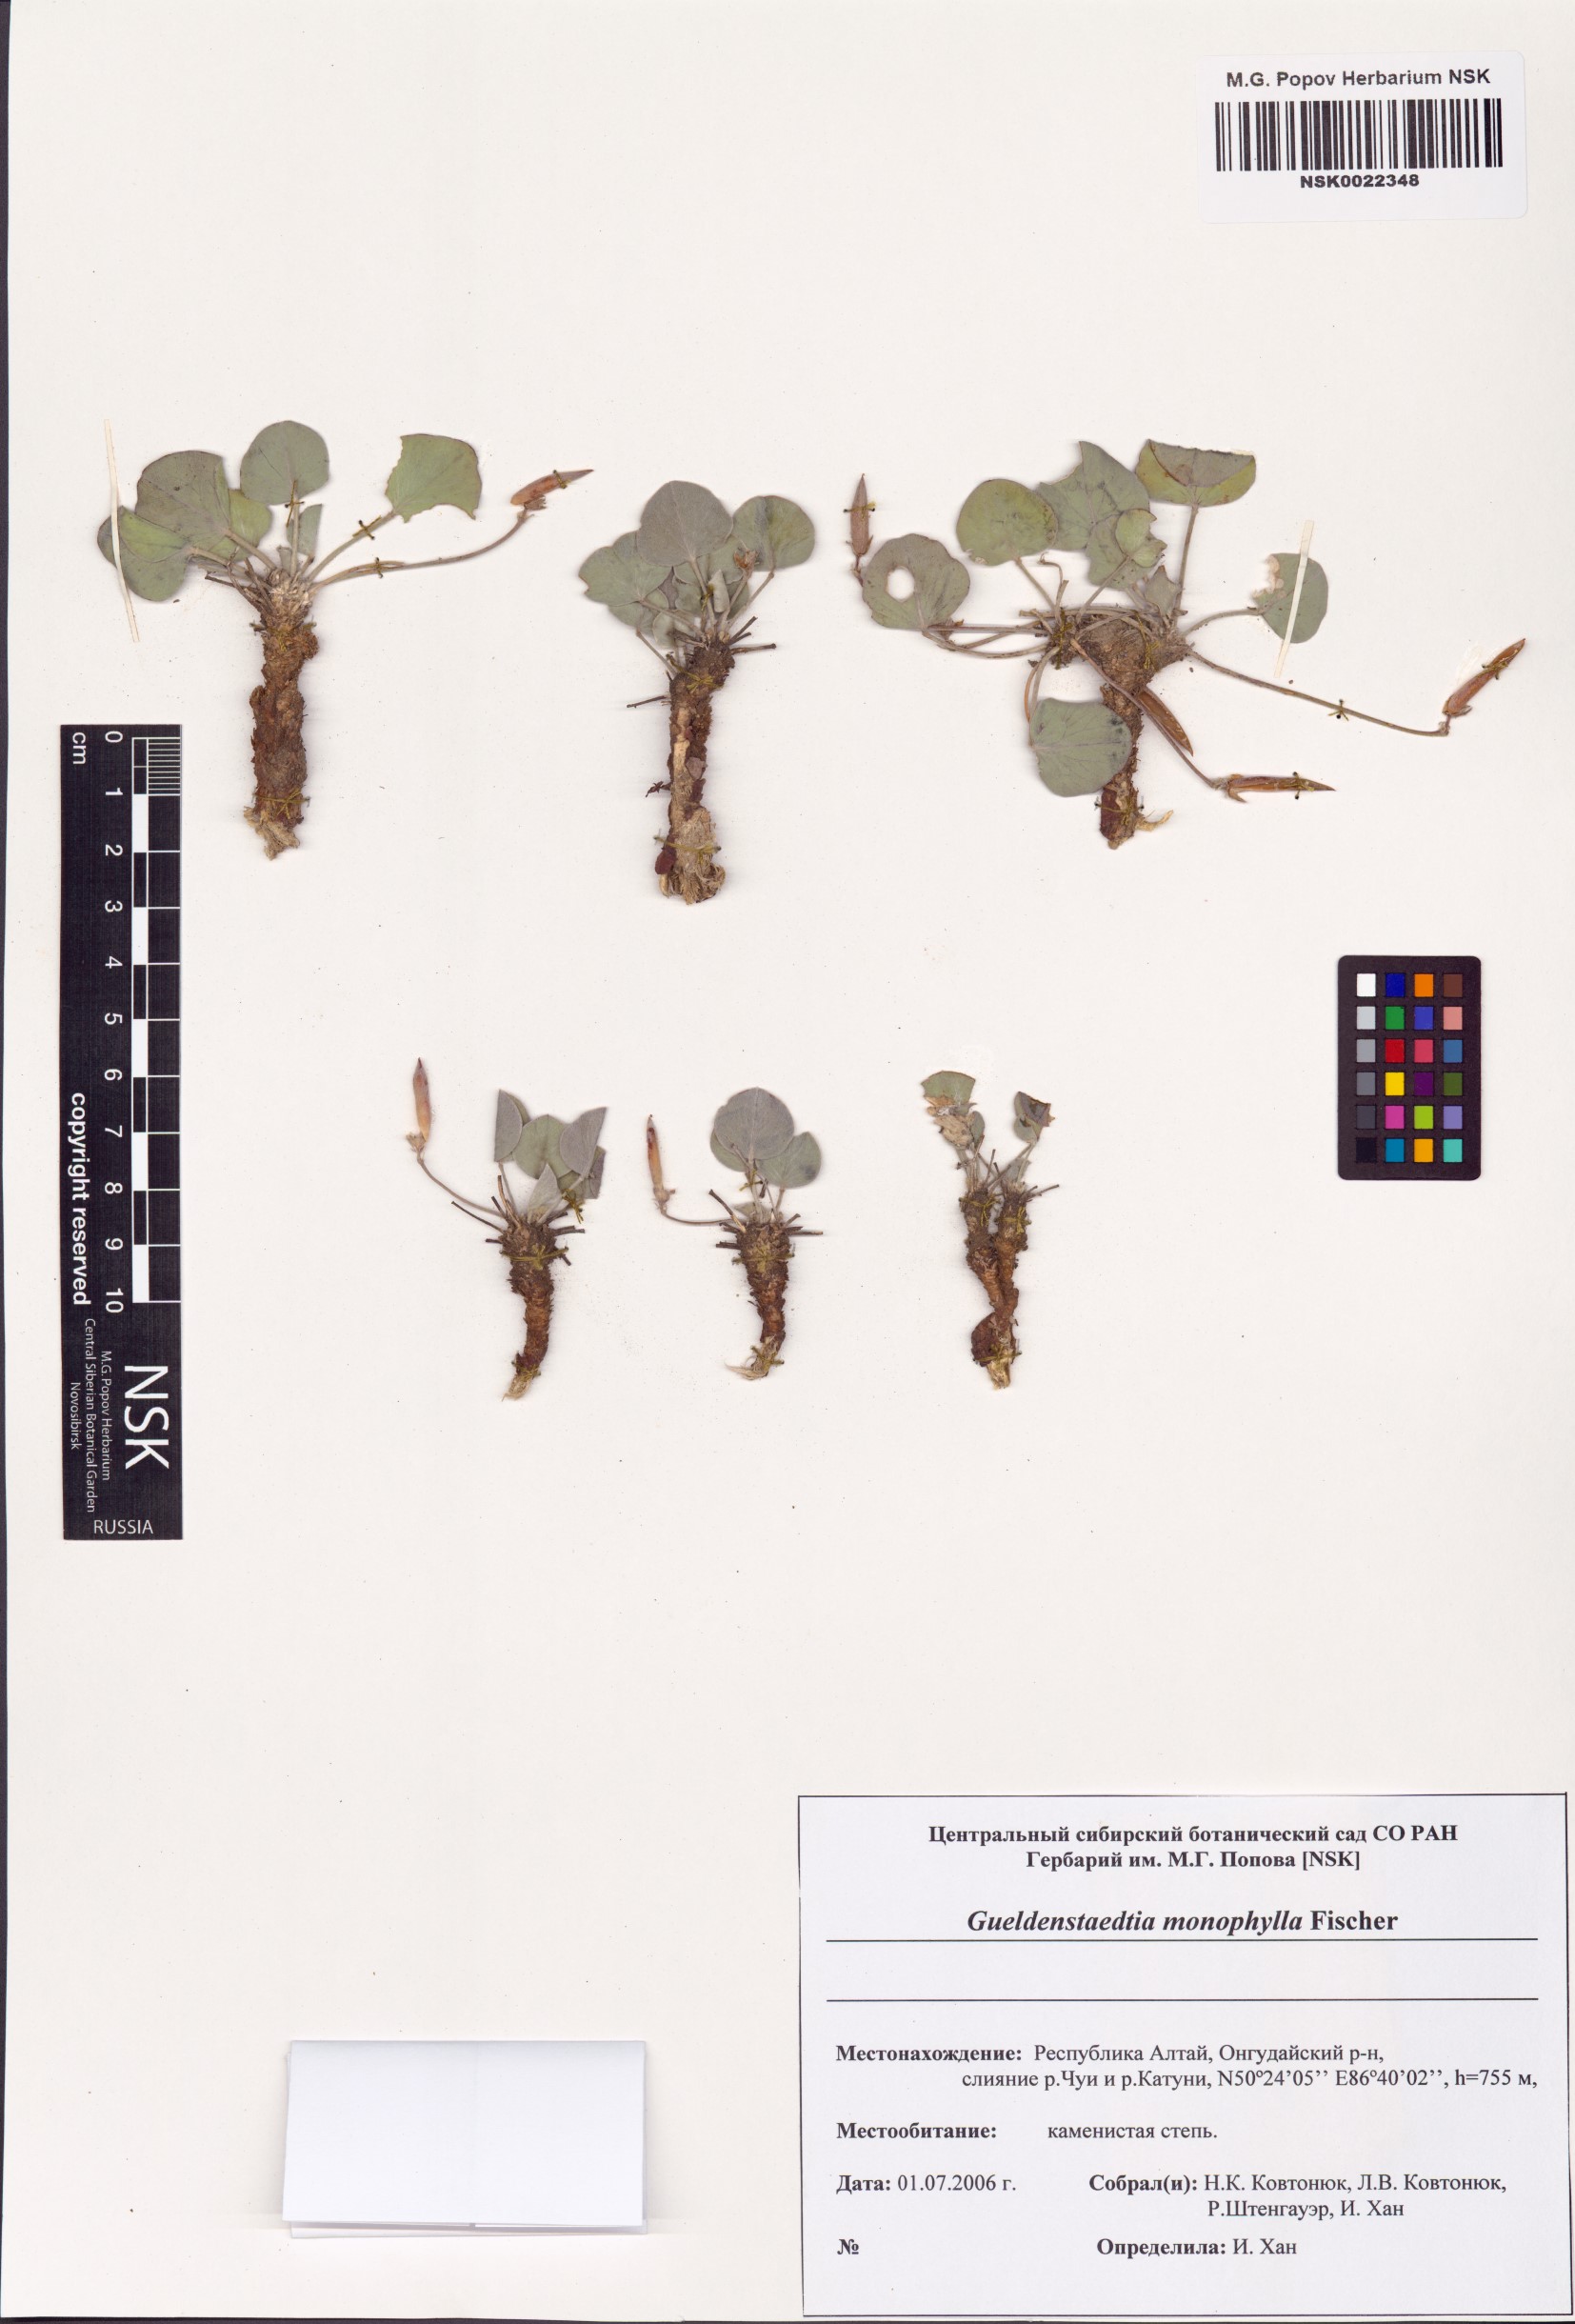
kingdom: Plantae
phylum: Tracheophyta
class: Magnoliopsida
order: Fabales
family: Fabaceae
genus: Gueldenstaedtia
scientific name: Gueldenstaedtia monophylla
